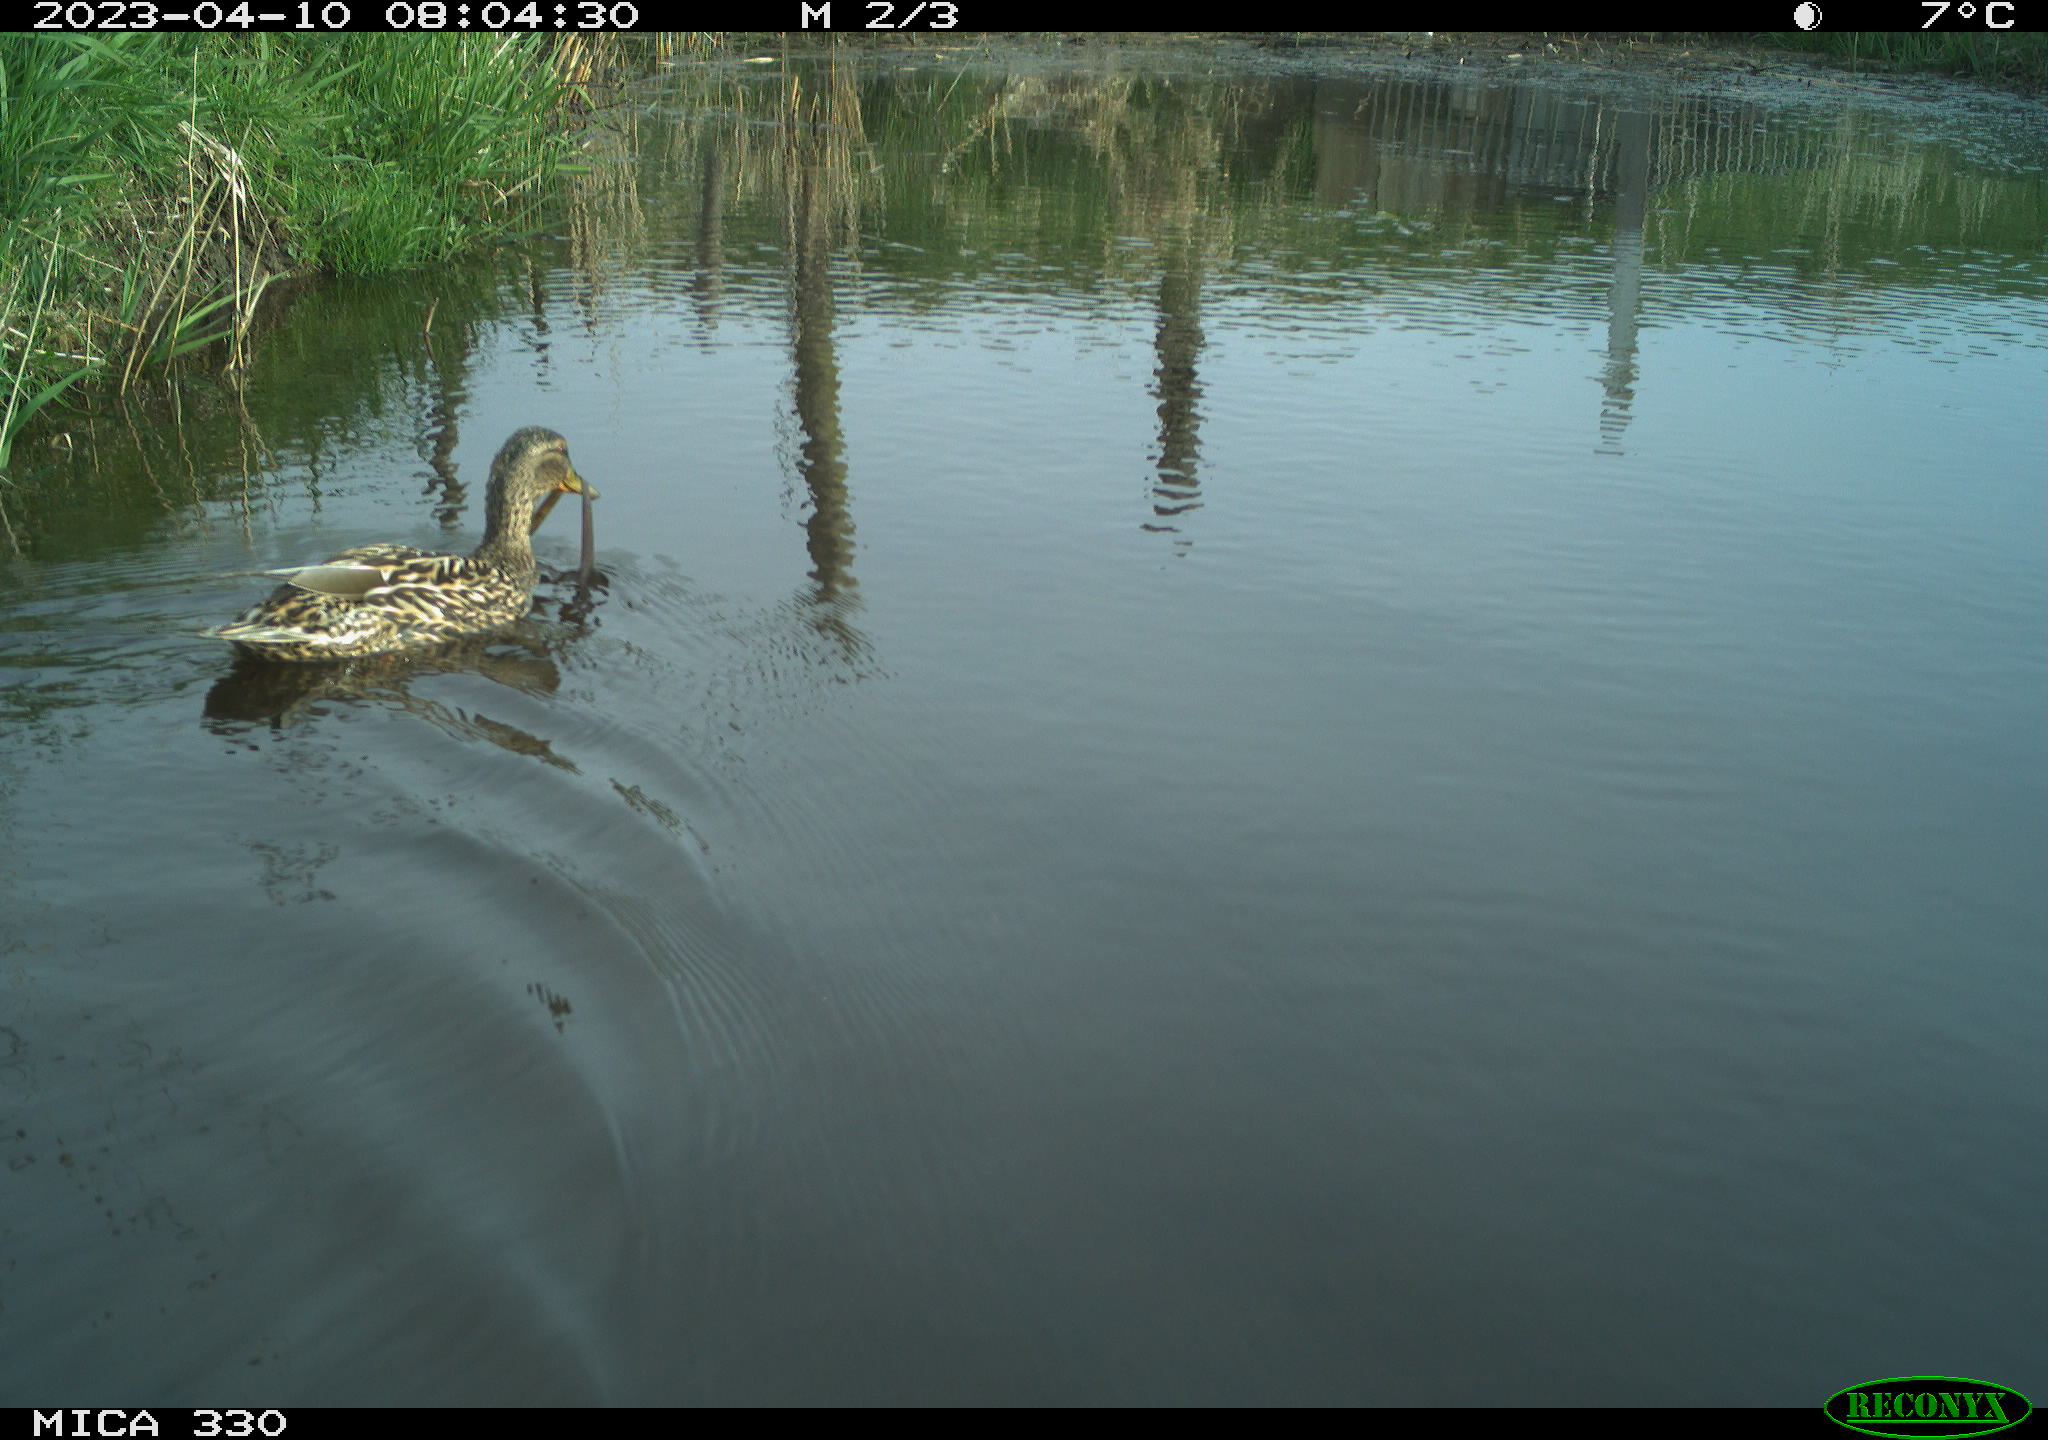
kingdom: Animalia
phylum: Chordata
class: Aves
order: Anseriformes
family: Anatidae
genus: Anas
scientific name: Anas
